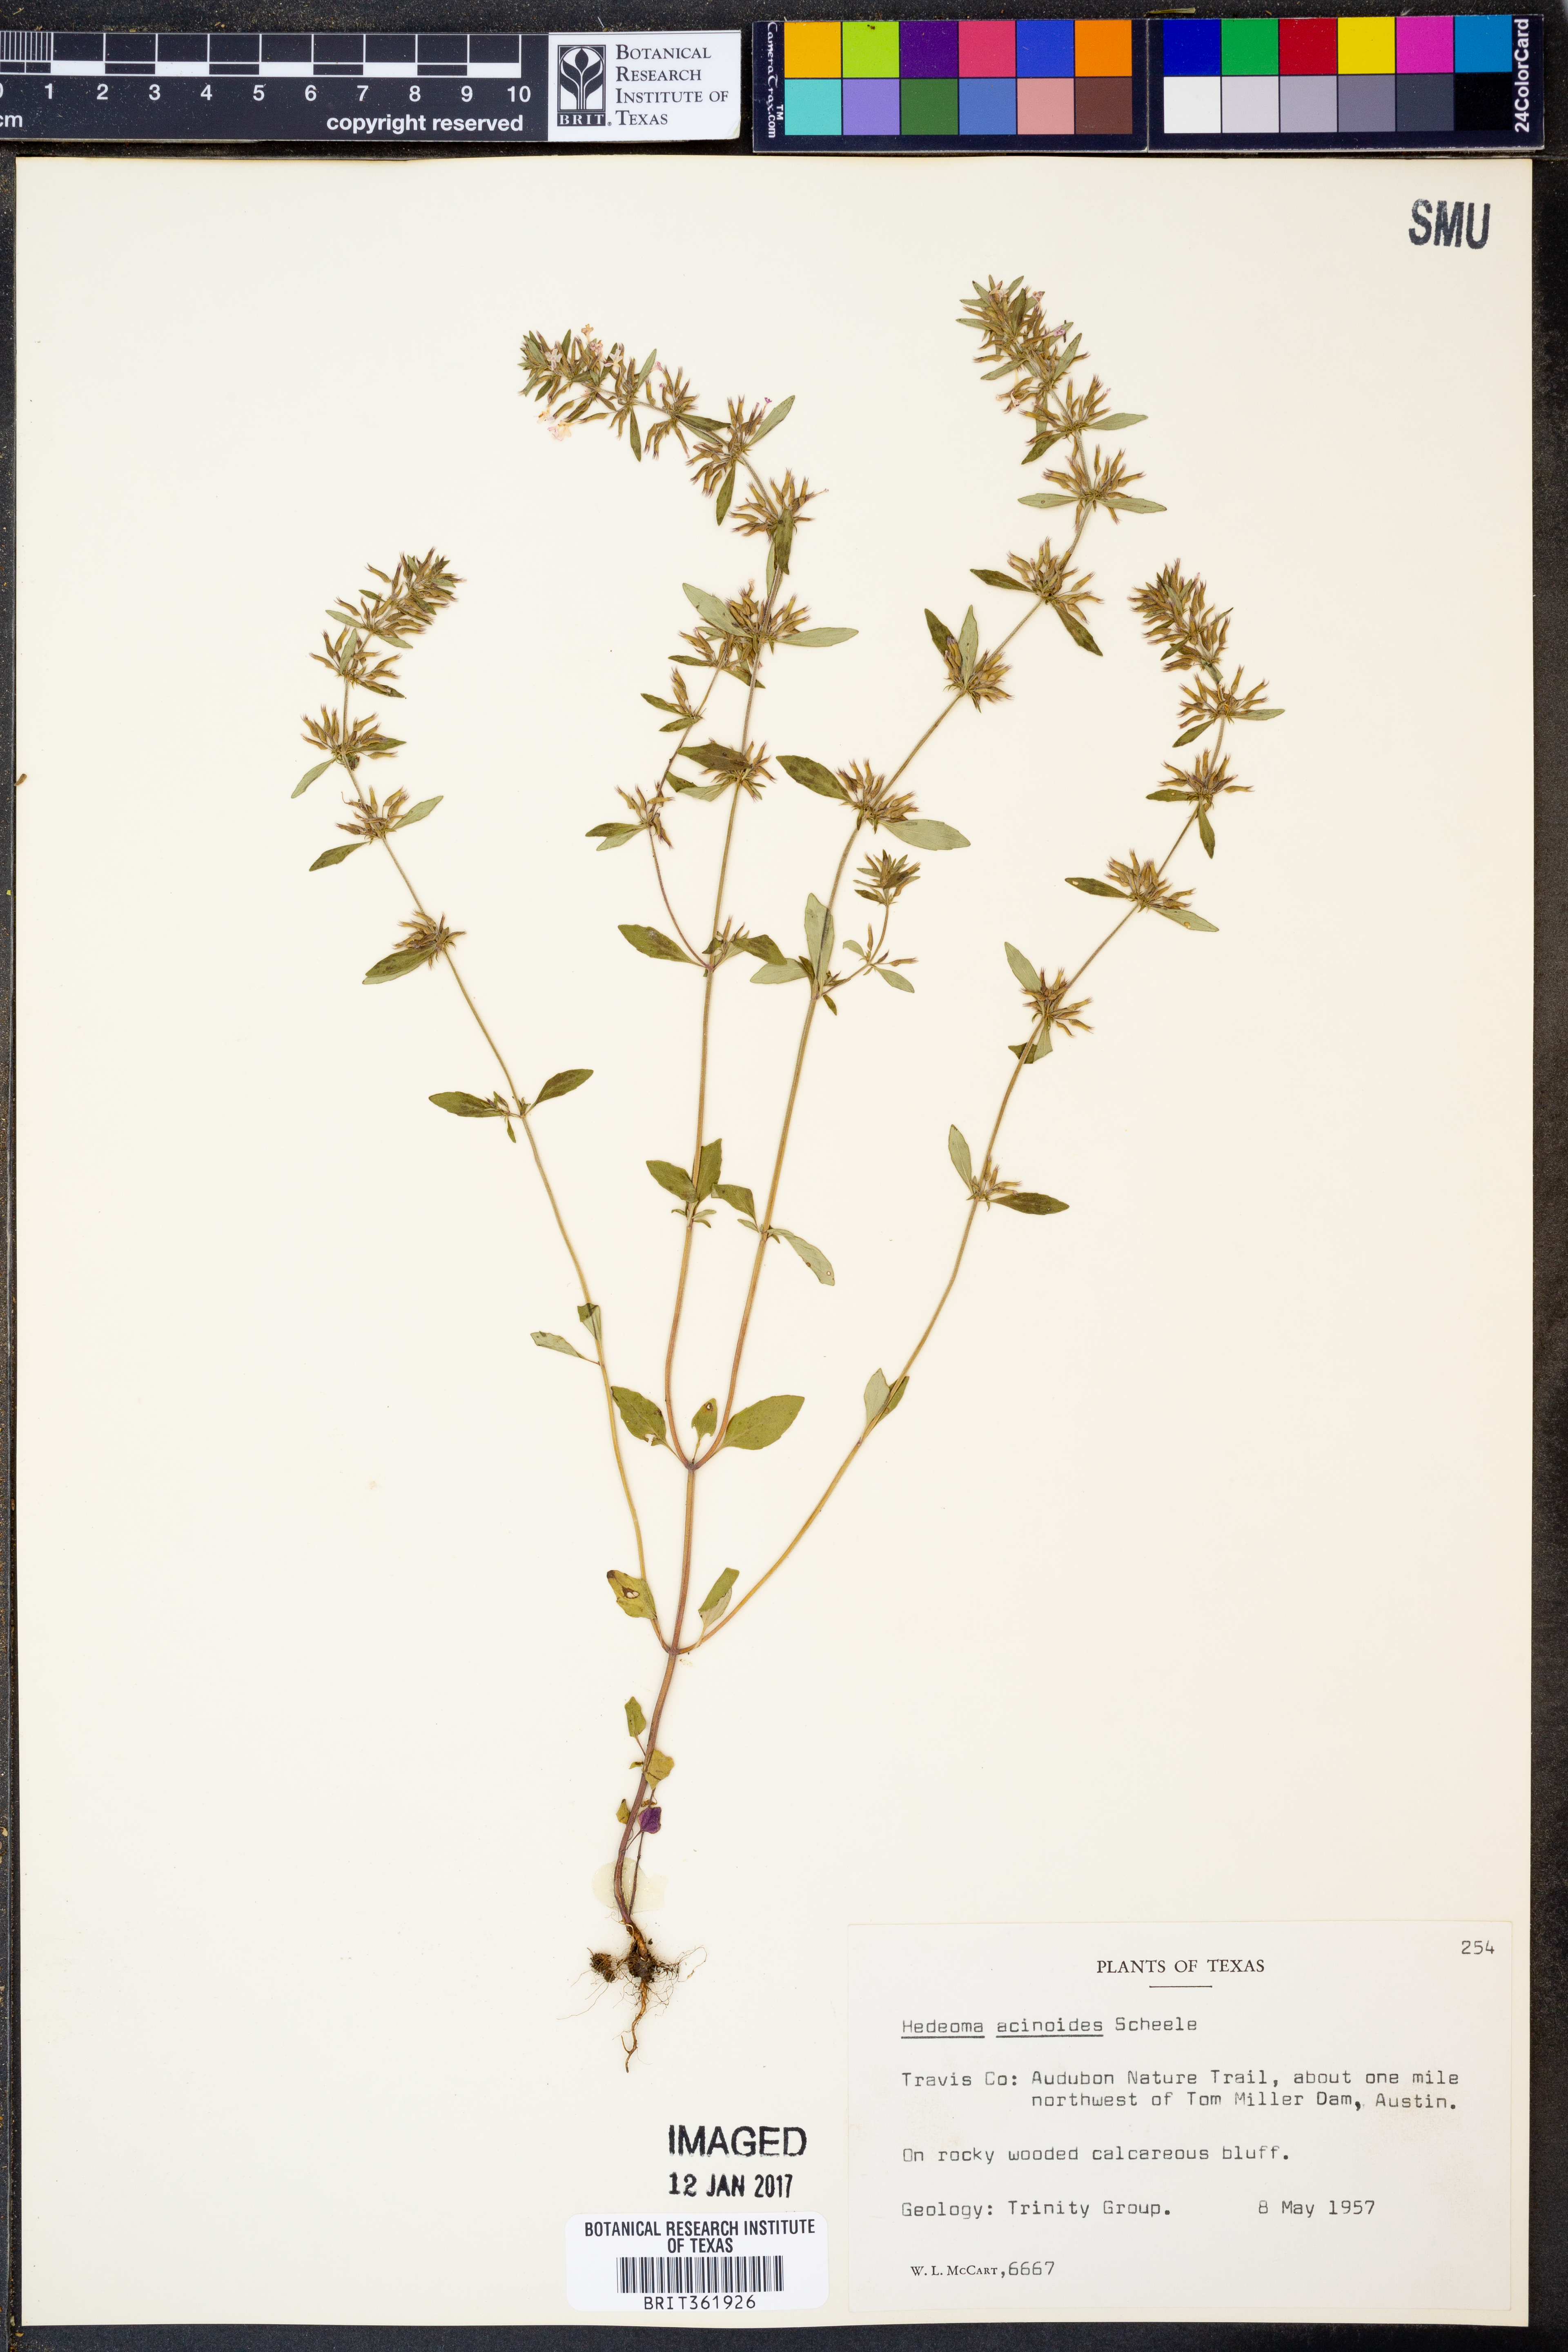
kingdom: Plantae
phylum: Tracheophyta
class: Magnoliopsida
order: Lamiales
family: Lamiaceae
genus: Hedeoma
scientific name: Hedeoma acinoides
